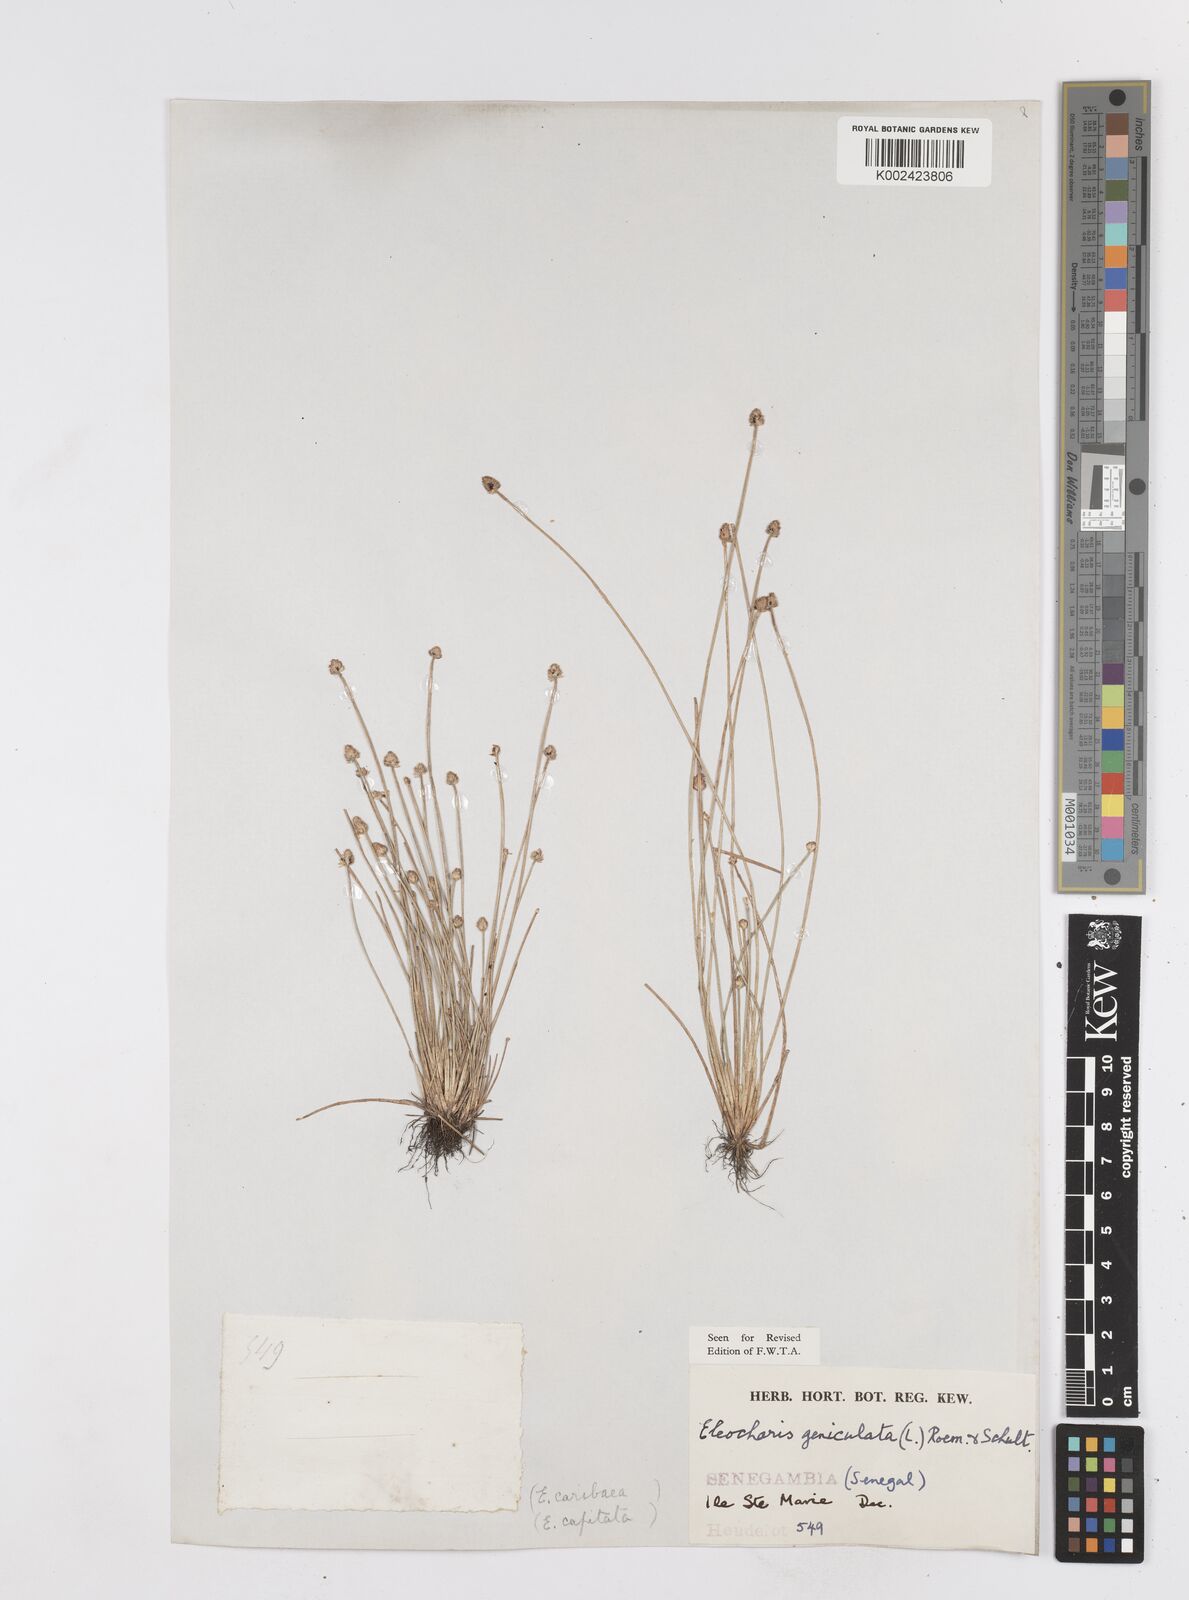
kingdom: Plantae
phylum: Tracheophyta
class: Liliopsida
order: Poales
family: Cyperaceae
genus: Eleocharis
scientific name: Eleocharis geniculata
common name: Canada spikesedge
